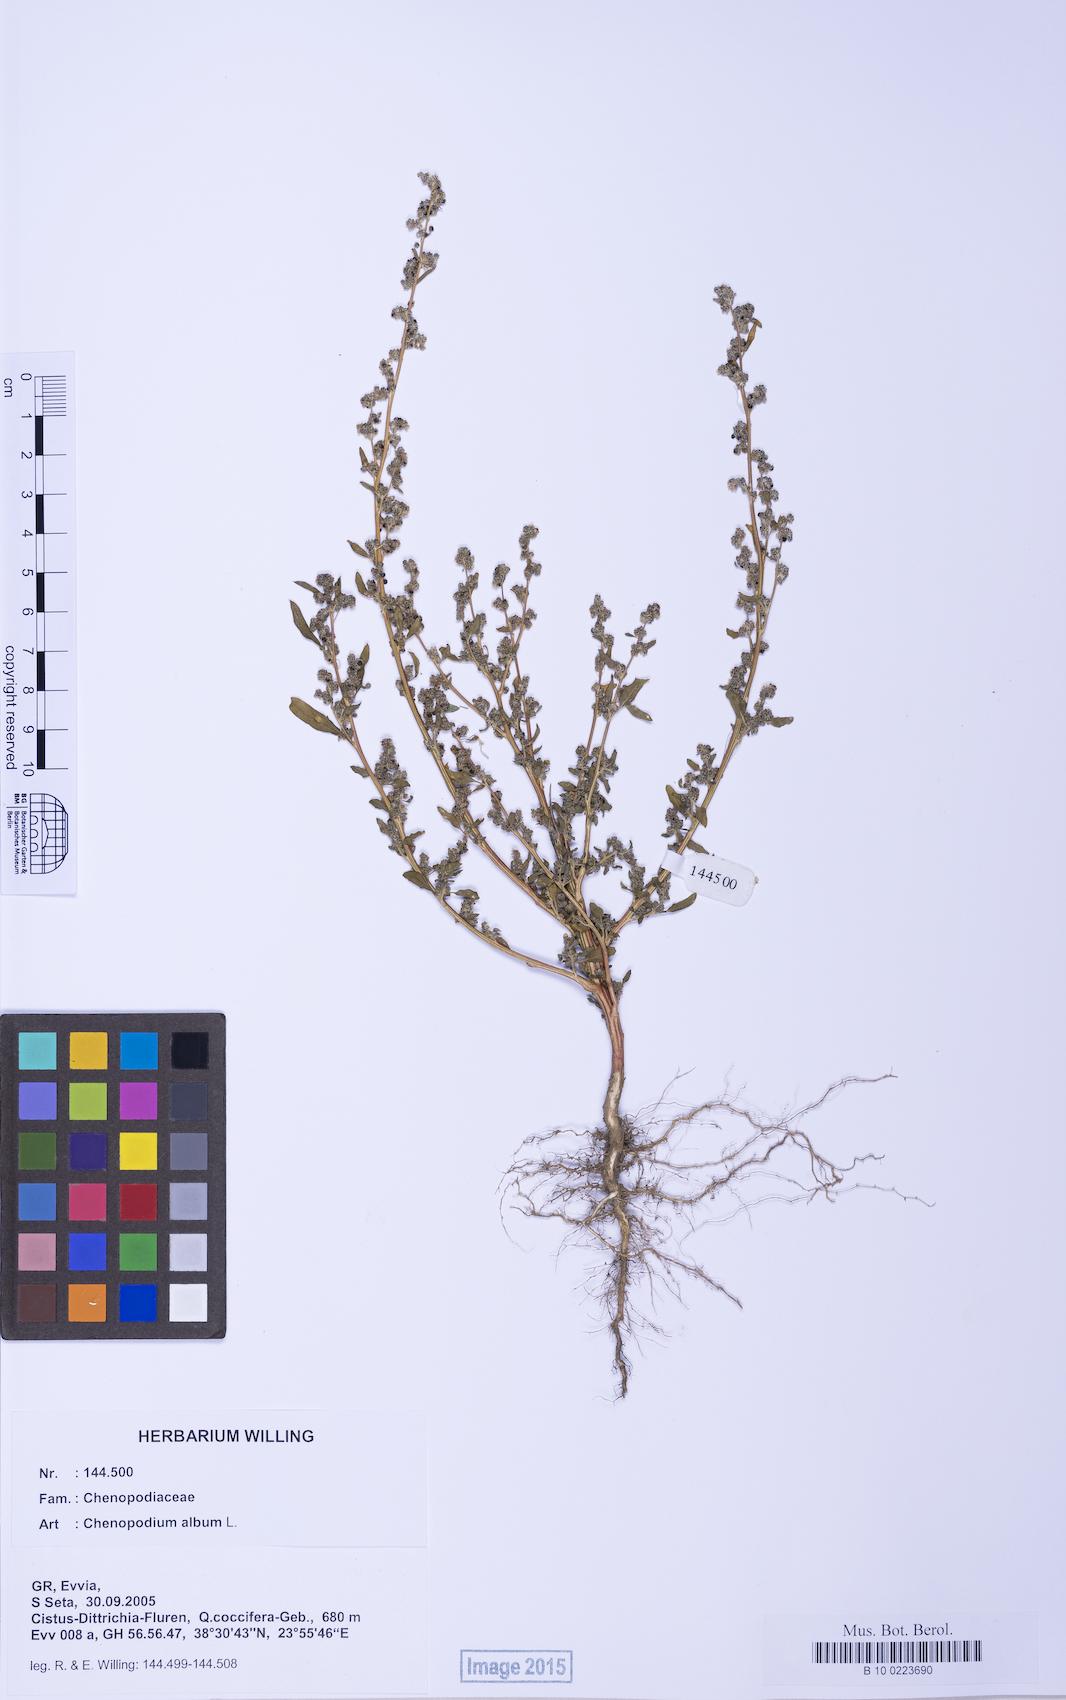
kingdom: Plantae
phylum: Tracheophyta
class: Magnoliopsida
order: Caryophyllales
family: Amaranthaceae
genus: Chenopodium
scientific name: Chenopodium album
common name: Fat-hen
